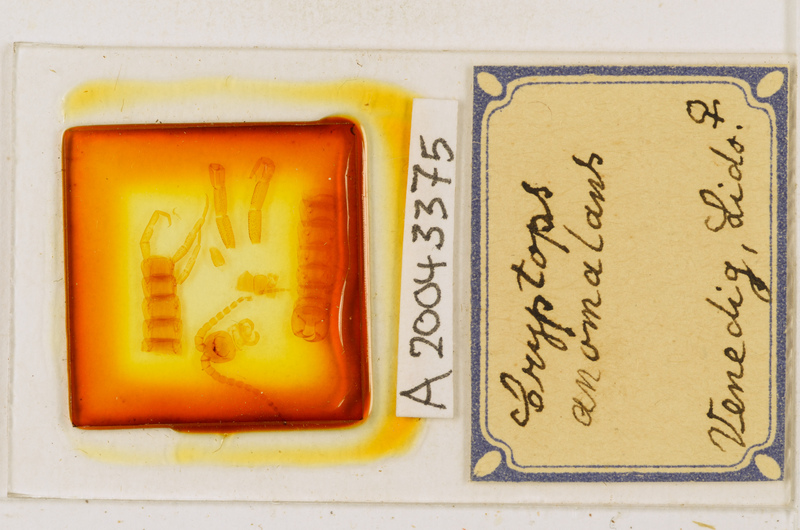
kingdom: Animalia
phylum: Arthropoda
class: Chilopoda
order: Scolopendromorpha
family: Cryptopidae
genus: Cryptops
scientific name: Cryptops anomalans
